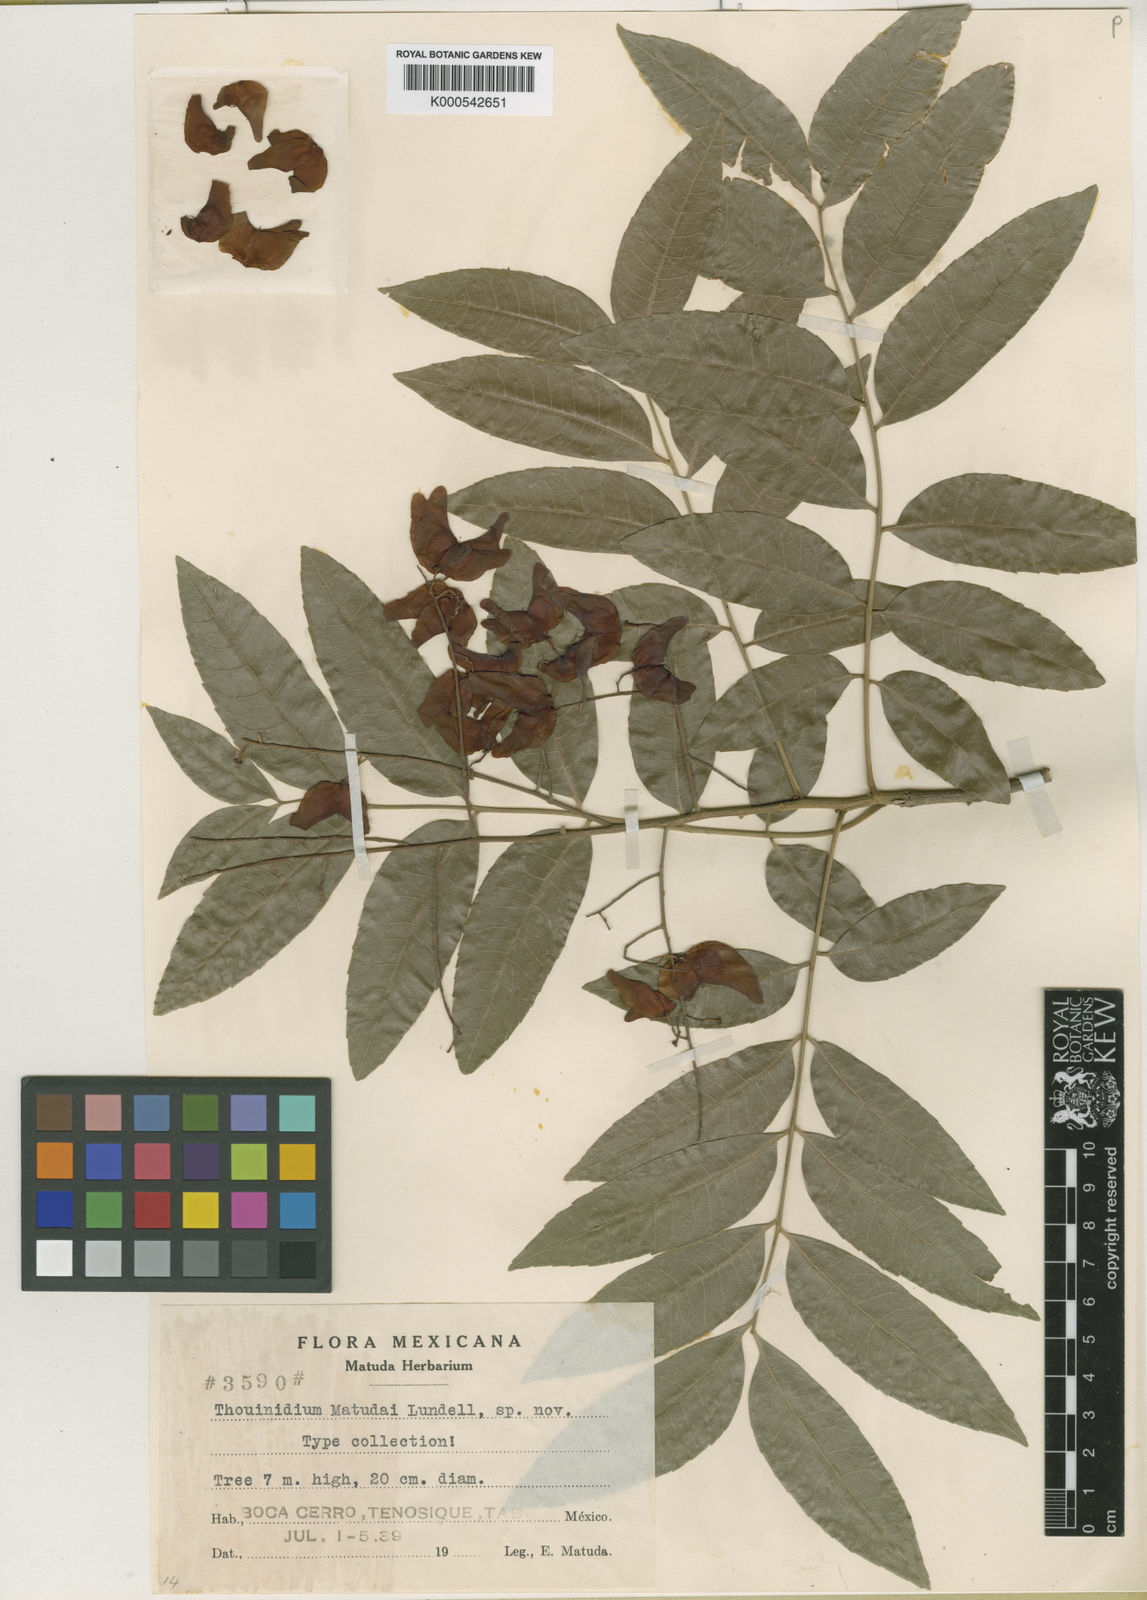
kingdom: Plantae
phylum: Tracheophyta
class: Magnoliopsida
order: Sapindales
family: Sapindaceae
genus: Thouinidium
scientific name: Thouinidium decandrum
